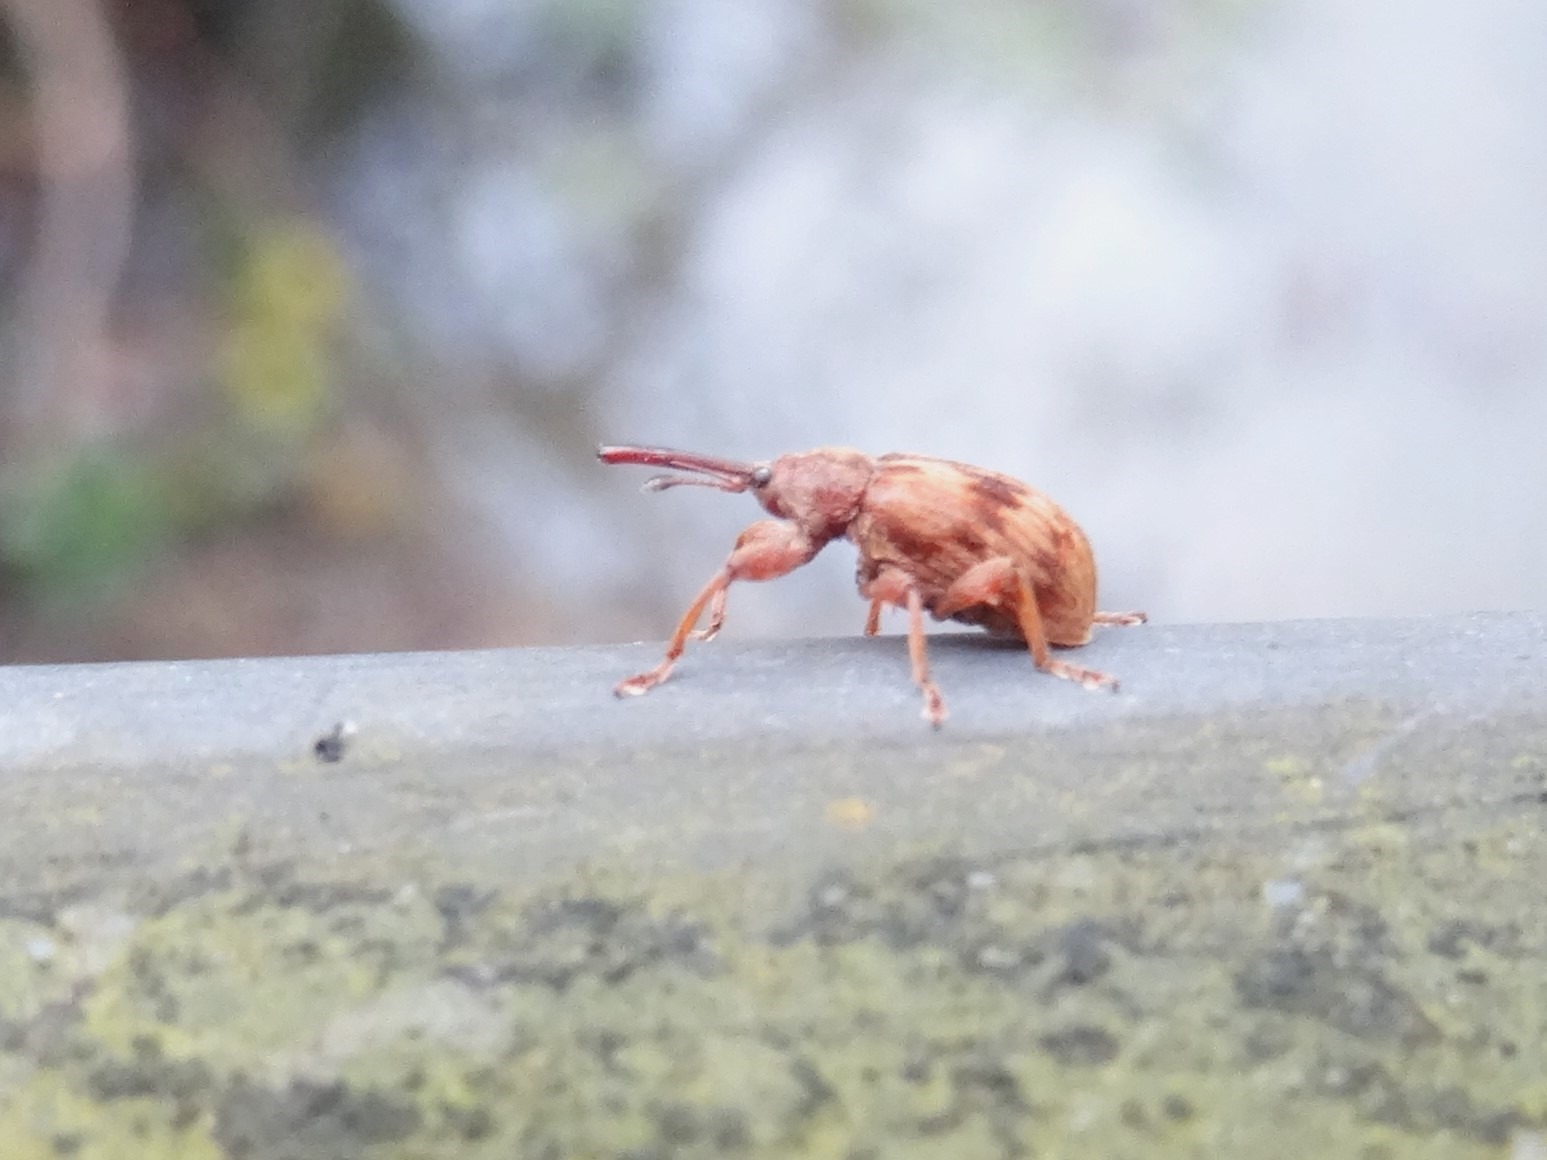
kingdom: Animalia
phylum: Arthropoda
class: Insecta
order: Coleoptera
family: Curculionidae
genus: Anthonomus
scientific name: Anthonomus rectirostris
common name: Kirsebærsnudebille
